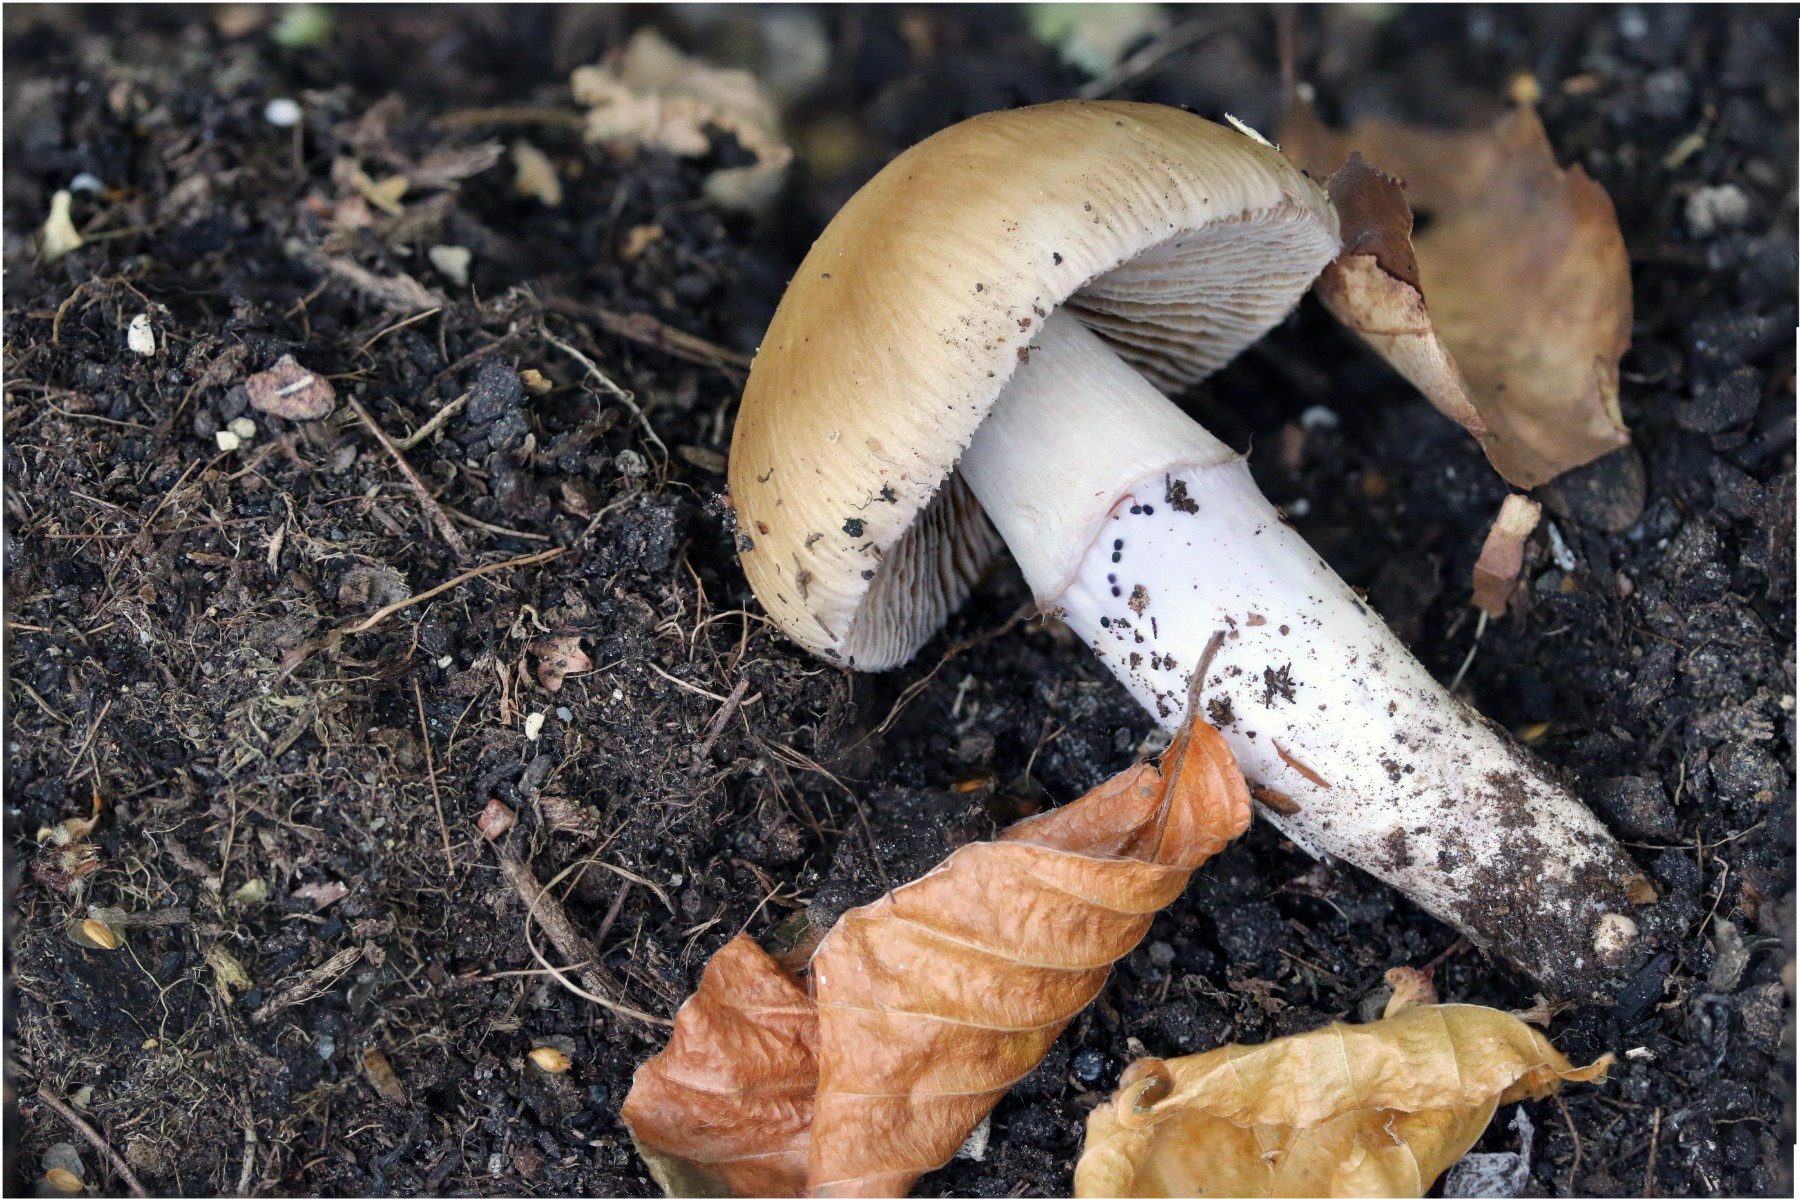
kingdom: Fungi
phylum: Basidiomycota
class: Agaricomycetes
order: Agaricales
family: Cortinariaceae
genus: Cortinarius
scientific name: Cortinarius elatior
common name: høj slørhat
